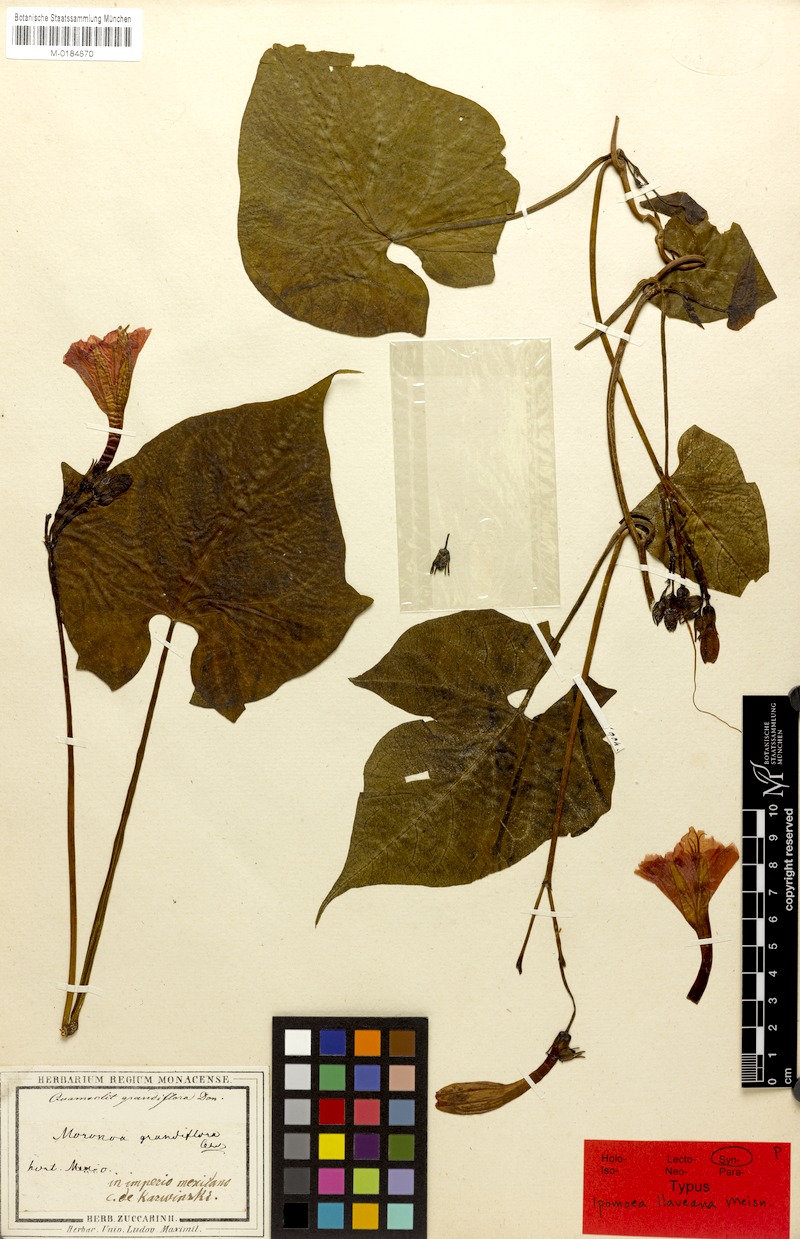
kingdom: Plantae
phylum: Tracheophyta
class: Magnoliopsida
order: Solanales
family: Convolvulaceae
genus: Ipomoea
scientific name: Ipomoea funis
